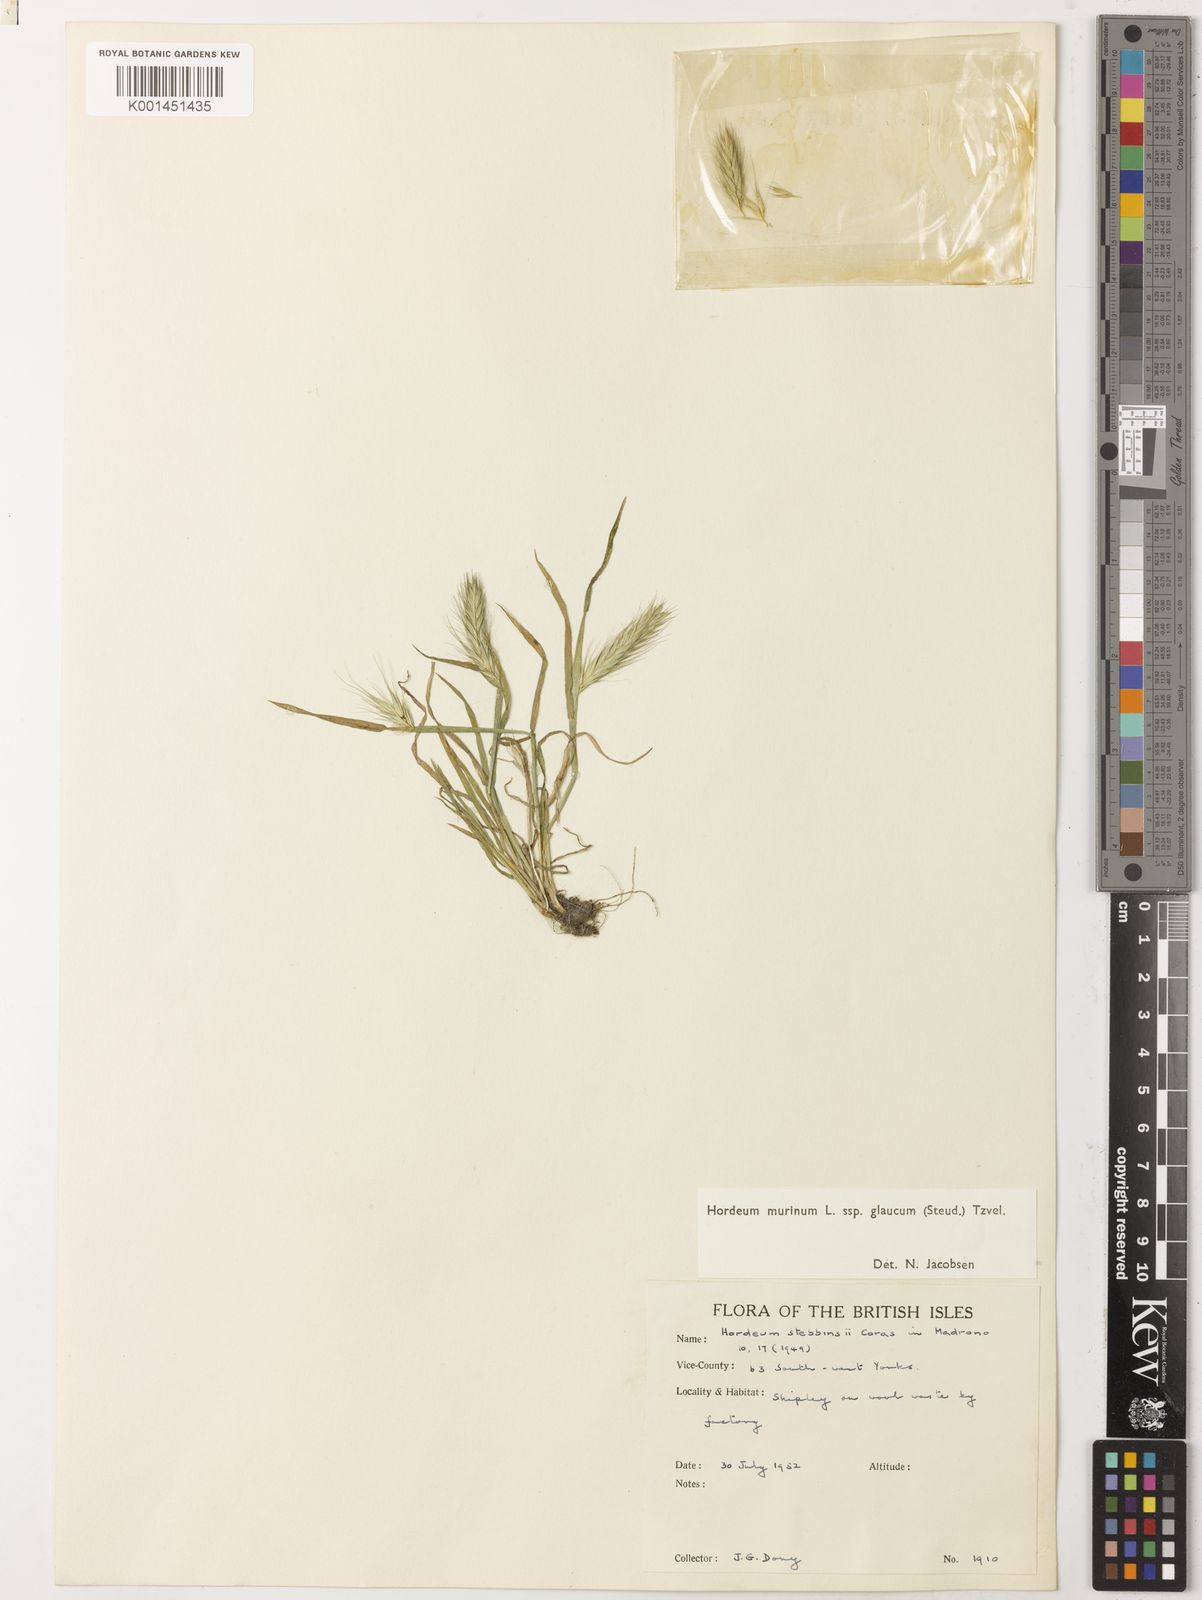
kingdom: Plantae
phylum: Tracheophyta
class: Liliopsida
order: Poales
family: Poaceae
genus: Hordeum
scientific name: Hordeum murinum
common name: Wall barley
